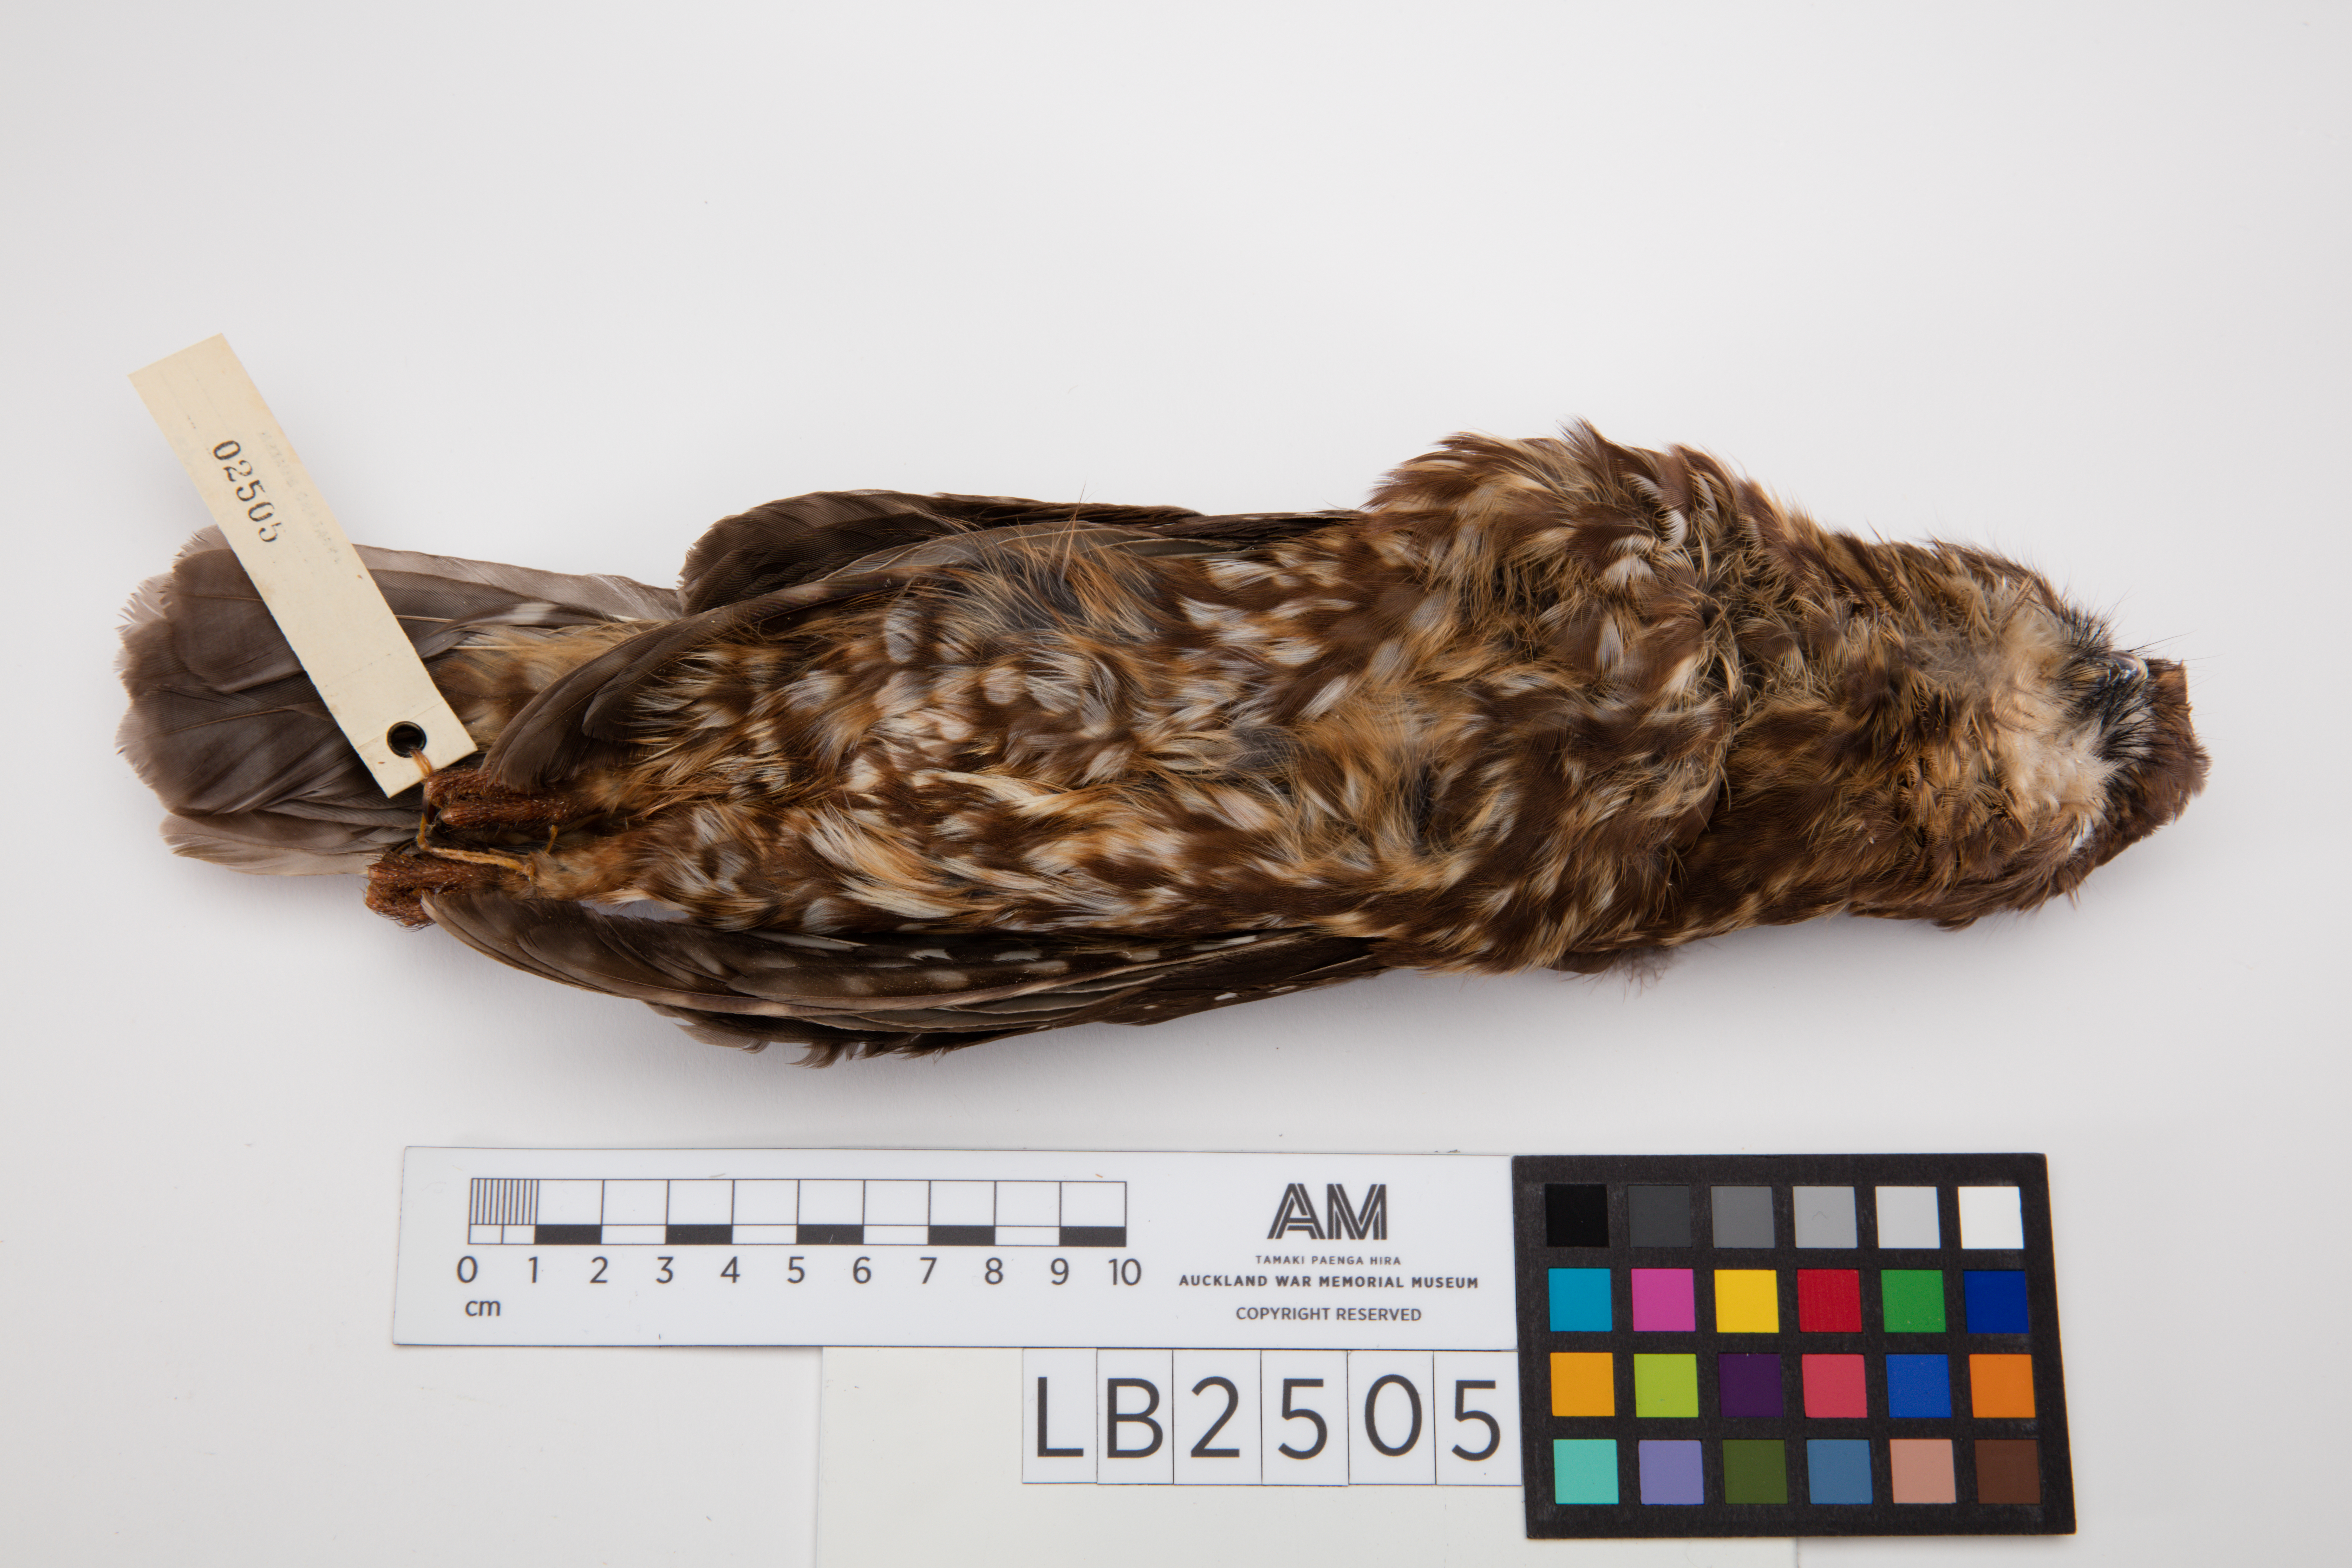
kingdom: Animalia
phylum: Chordata
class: Aves
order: Strigiformes
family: Strigidae
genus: Ninox
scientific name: Ninox novaeseelandiae
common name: Morepork
